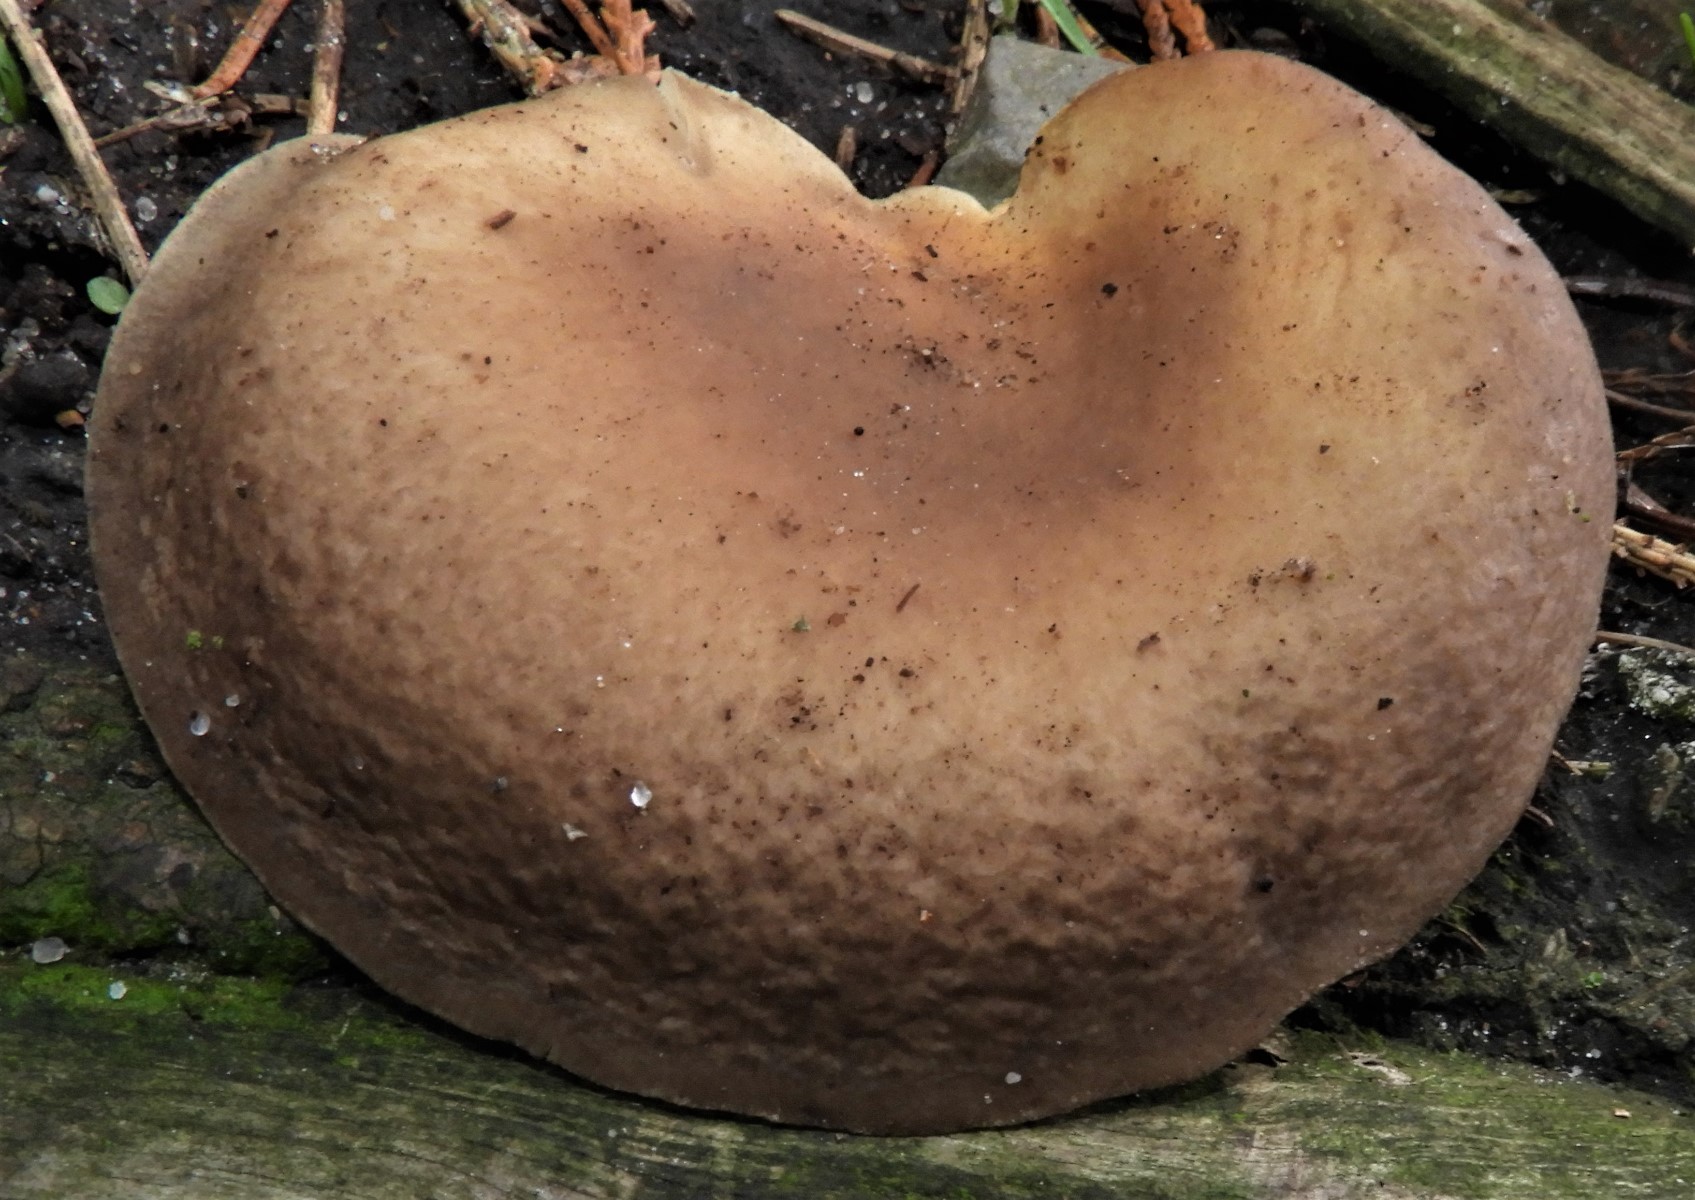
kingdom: Fungi
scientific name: Fungi
